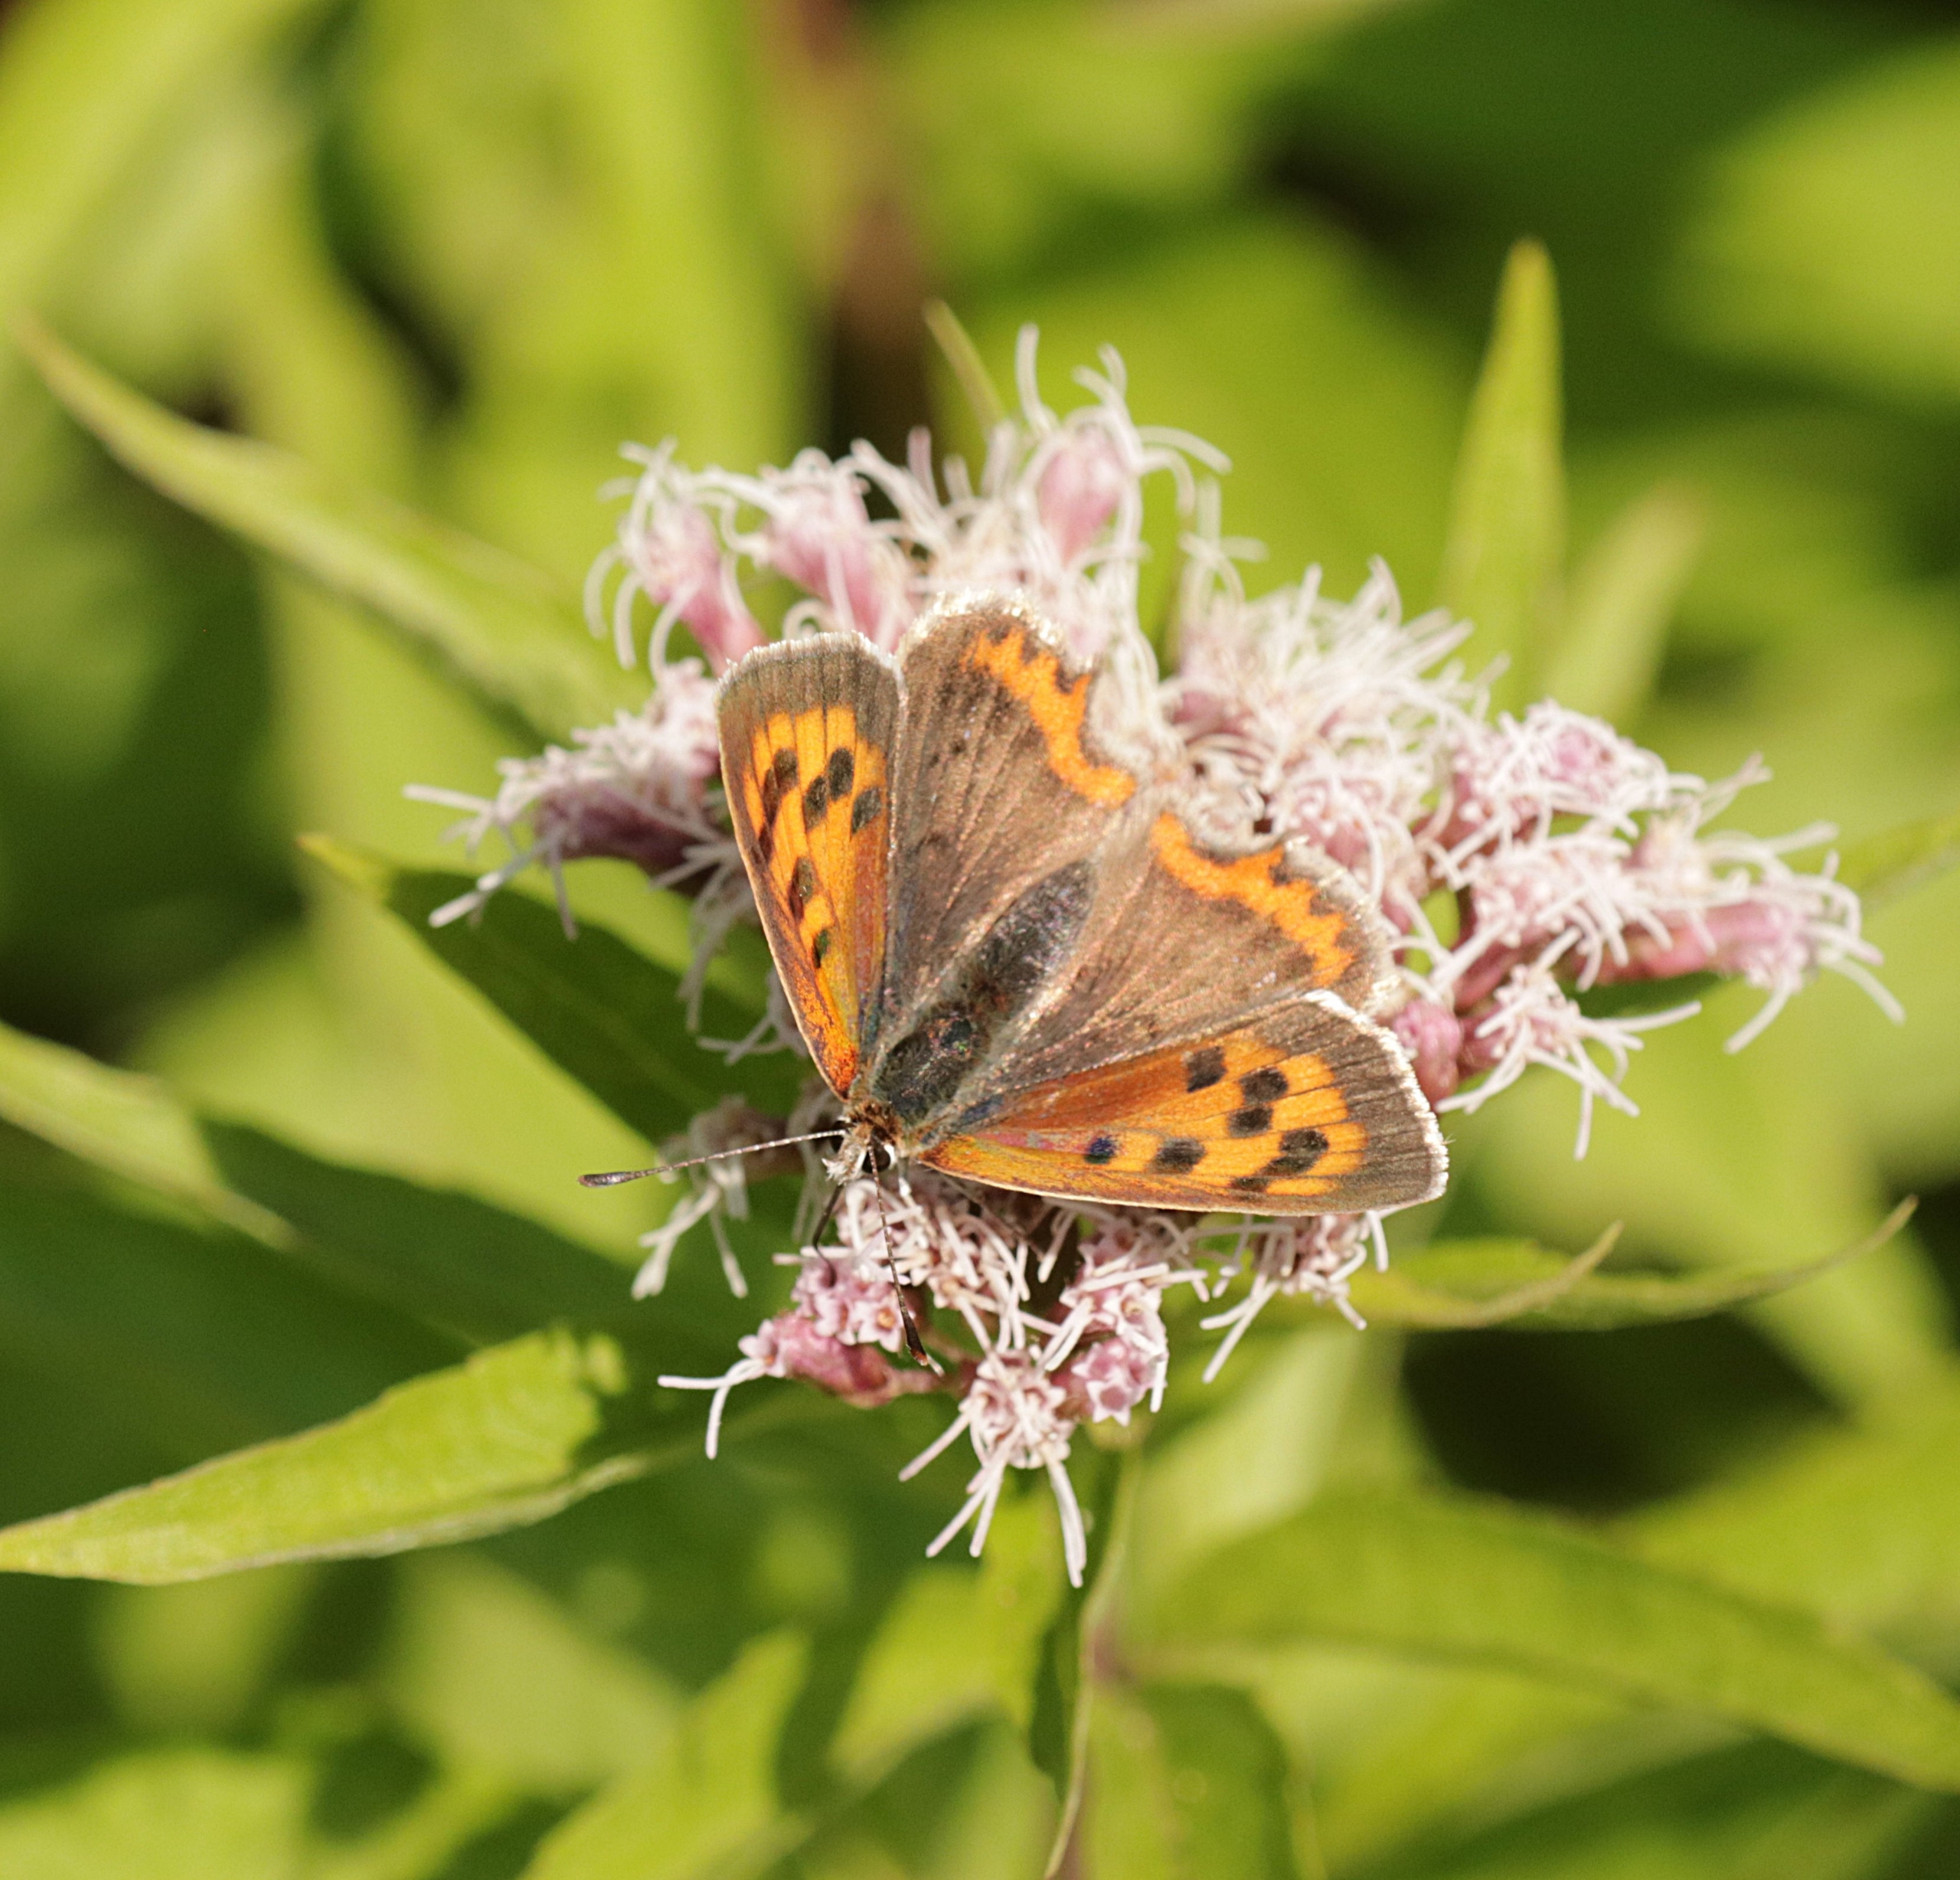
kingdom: Animalia
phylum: Arthropoda
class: Insecta
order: Lepidoptera
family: Lycaenidae
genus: Lycaena
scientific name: Lycaena phlaeas
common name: Lille ildfugl
